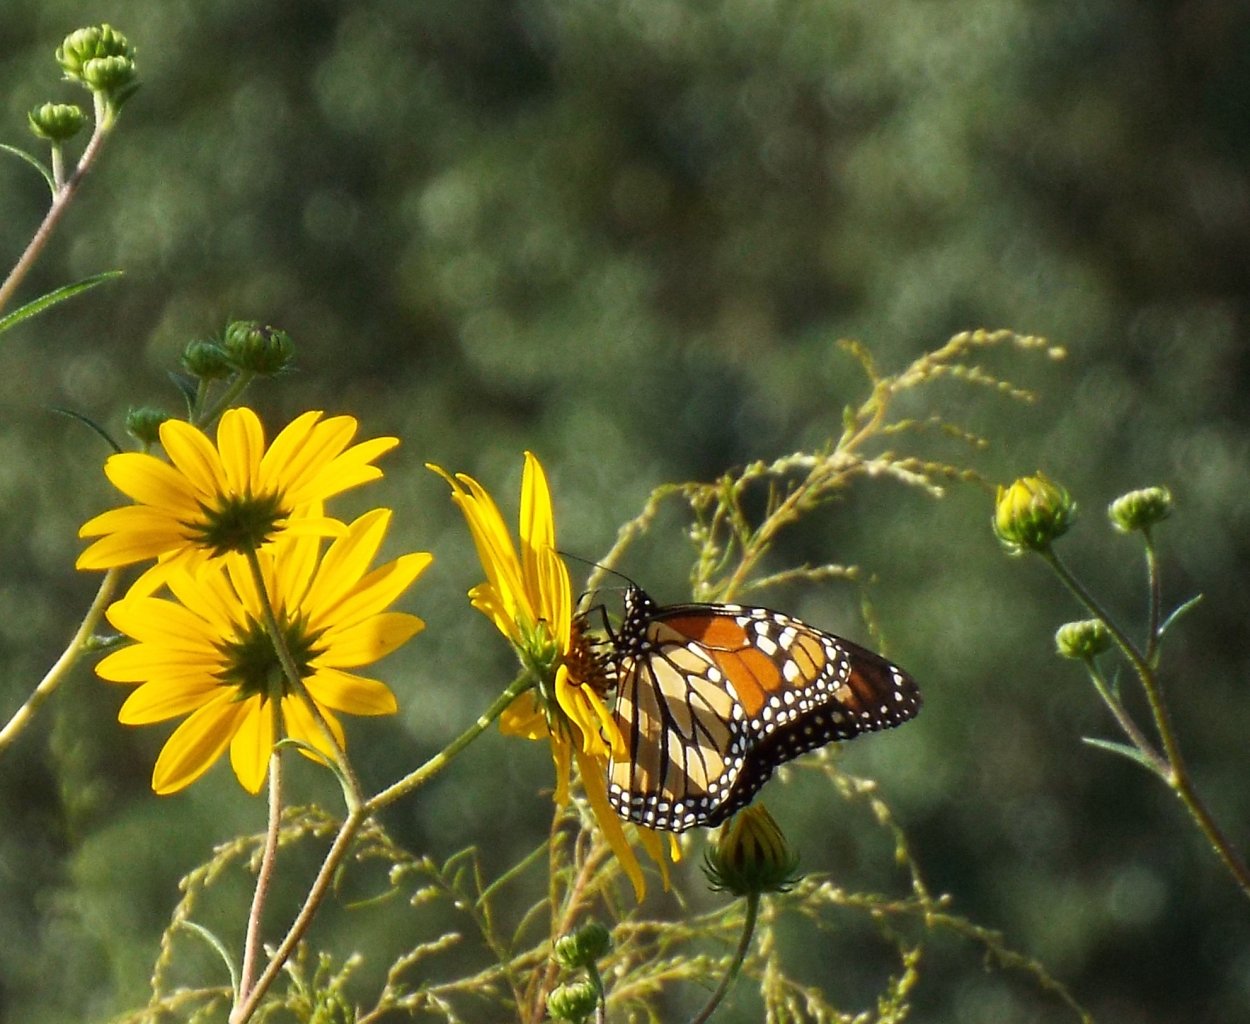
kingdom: Animalia
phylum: Arthropoda
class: Insecta
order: Lepidoptera
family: Nymphalidae
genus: Danaus
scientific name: Danaus plexippus
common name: Monarch
